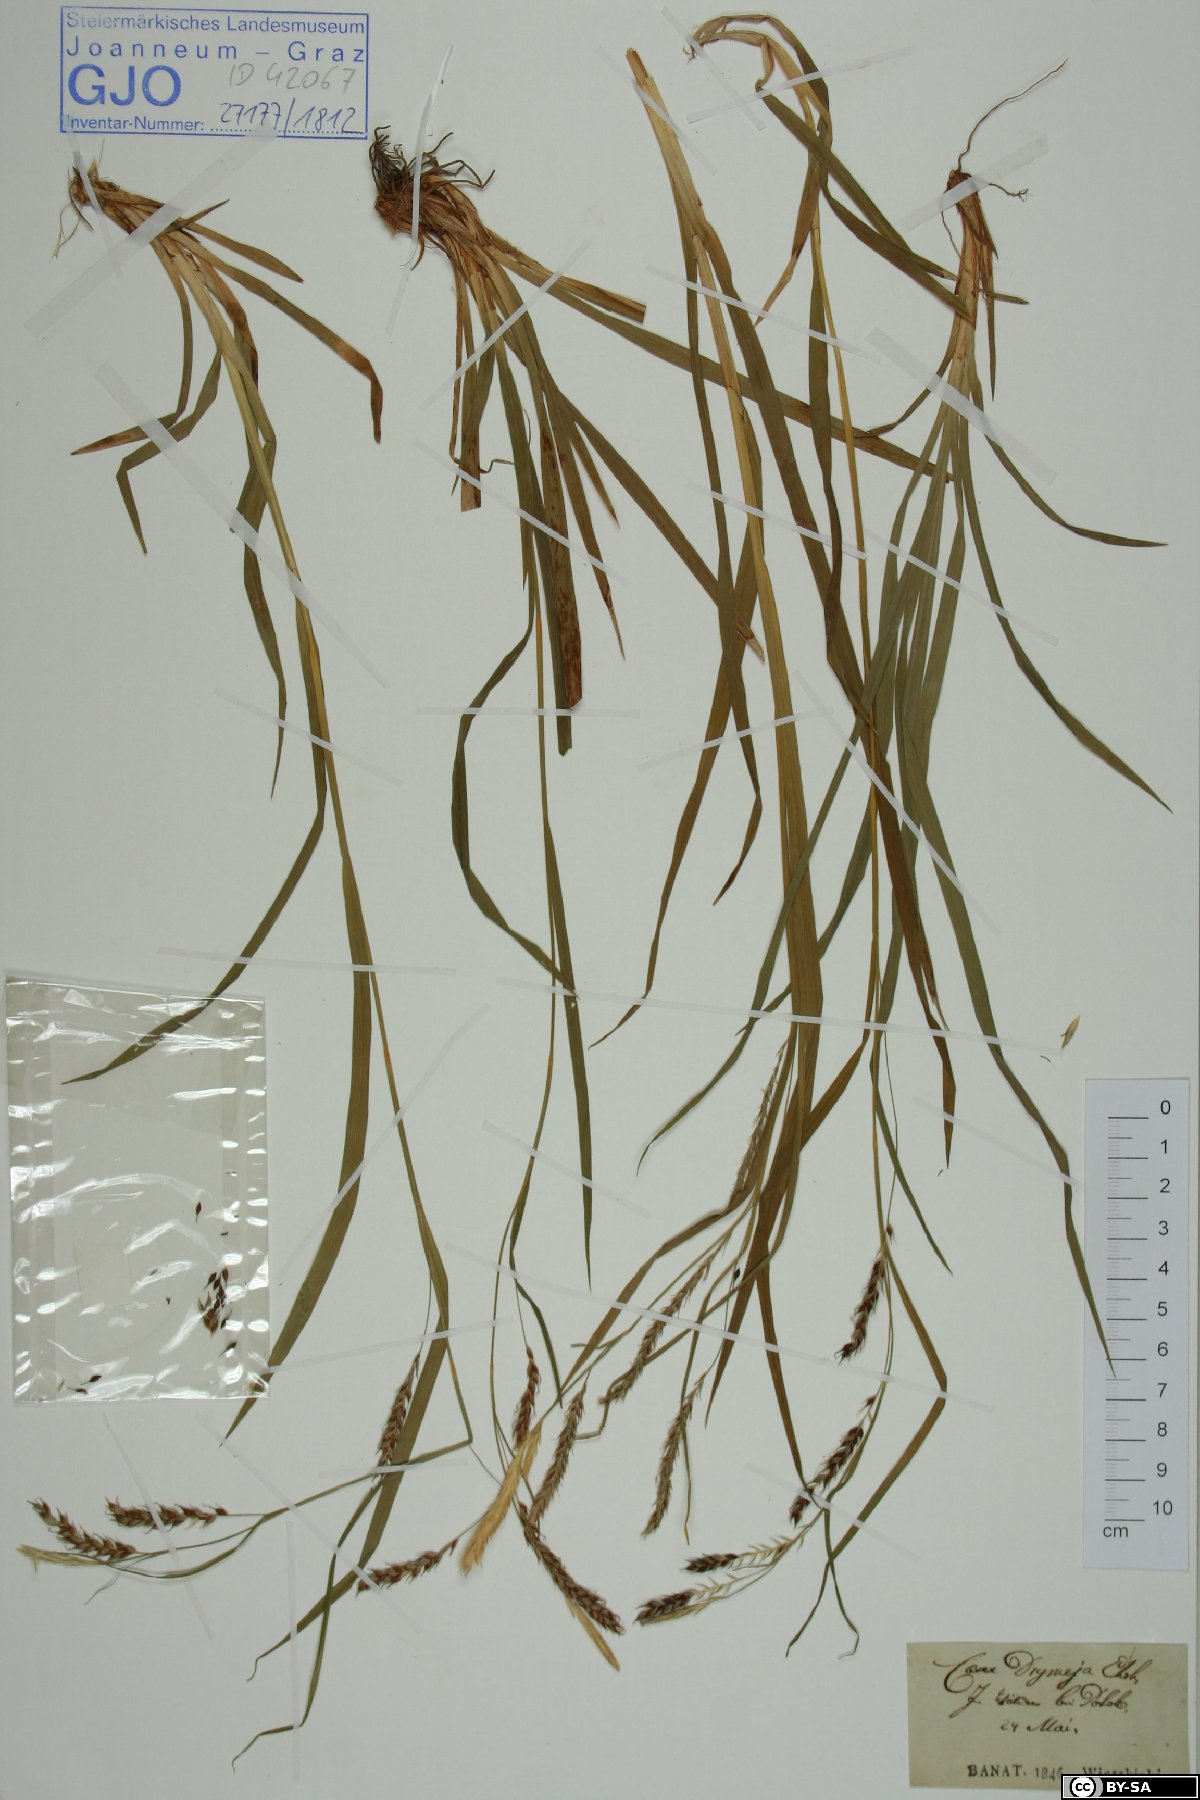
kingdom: Plantae
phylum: Tracheophyta
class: Liliopsida
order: Poales
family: Cyperaceae
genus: Carex
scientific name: Carex sylvatica
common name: Wood-sedge
